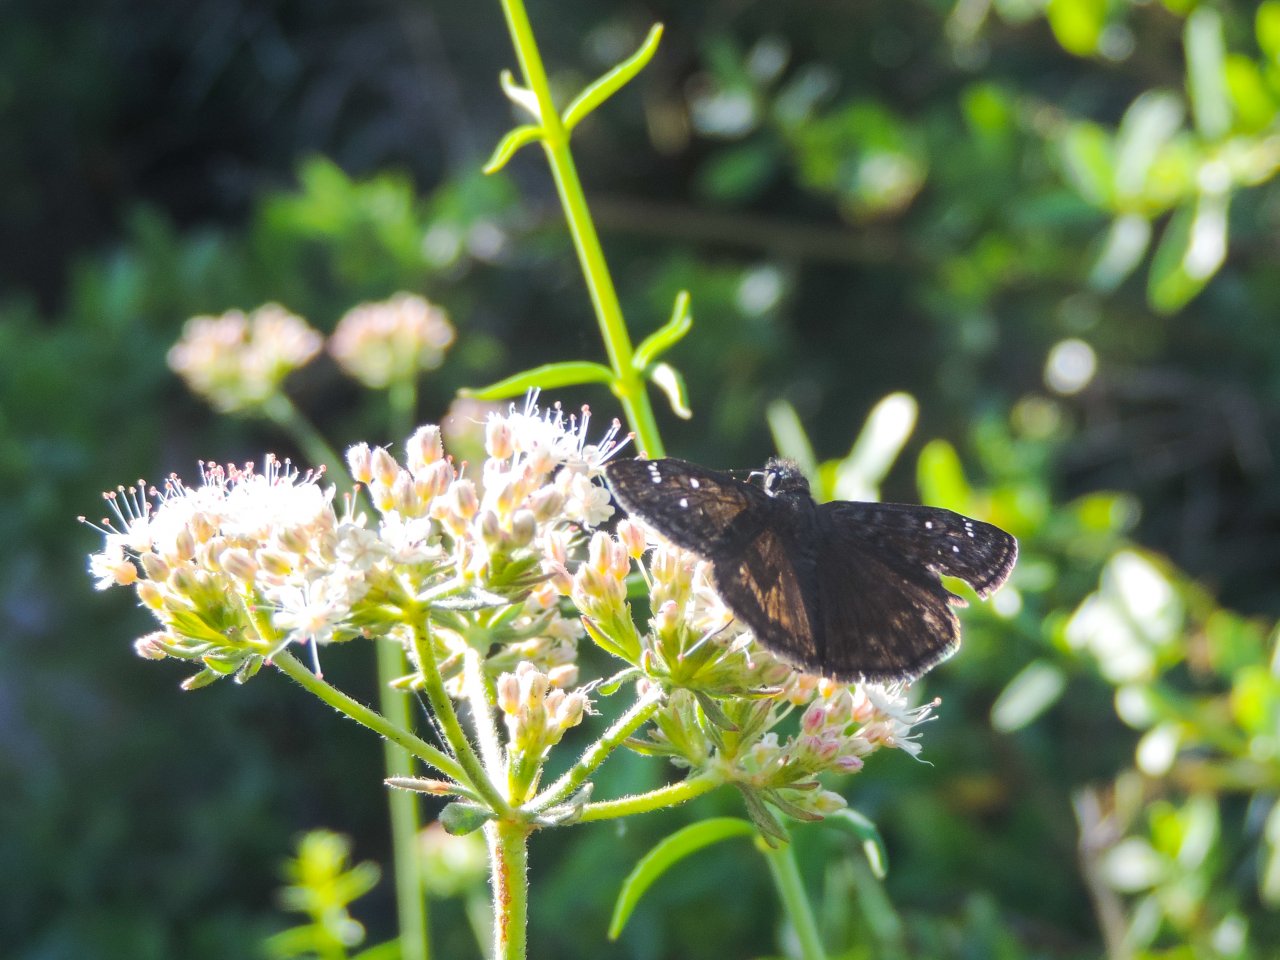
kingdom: Animalia
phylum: Arthropoda
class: Insecta
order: Lepidoptera
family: Hesperiidae
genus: Erynnis
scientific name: Erynnis
